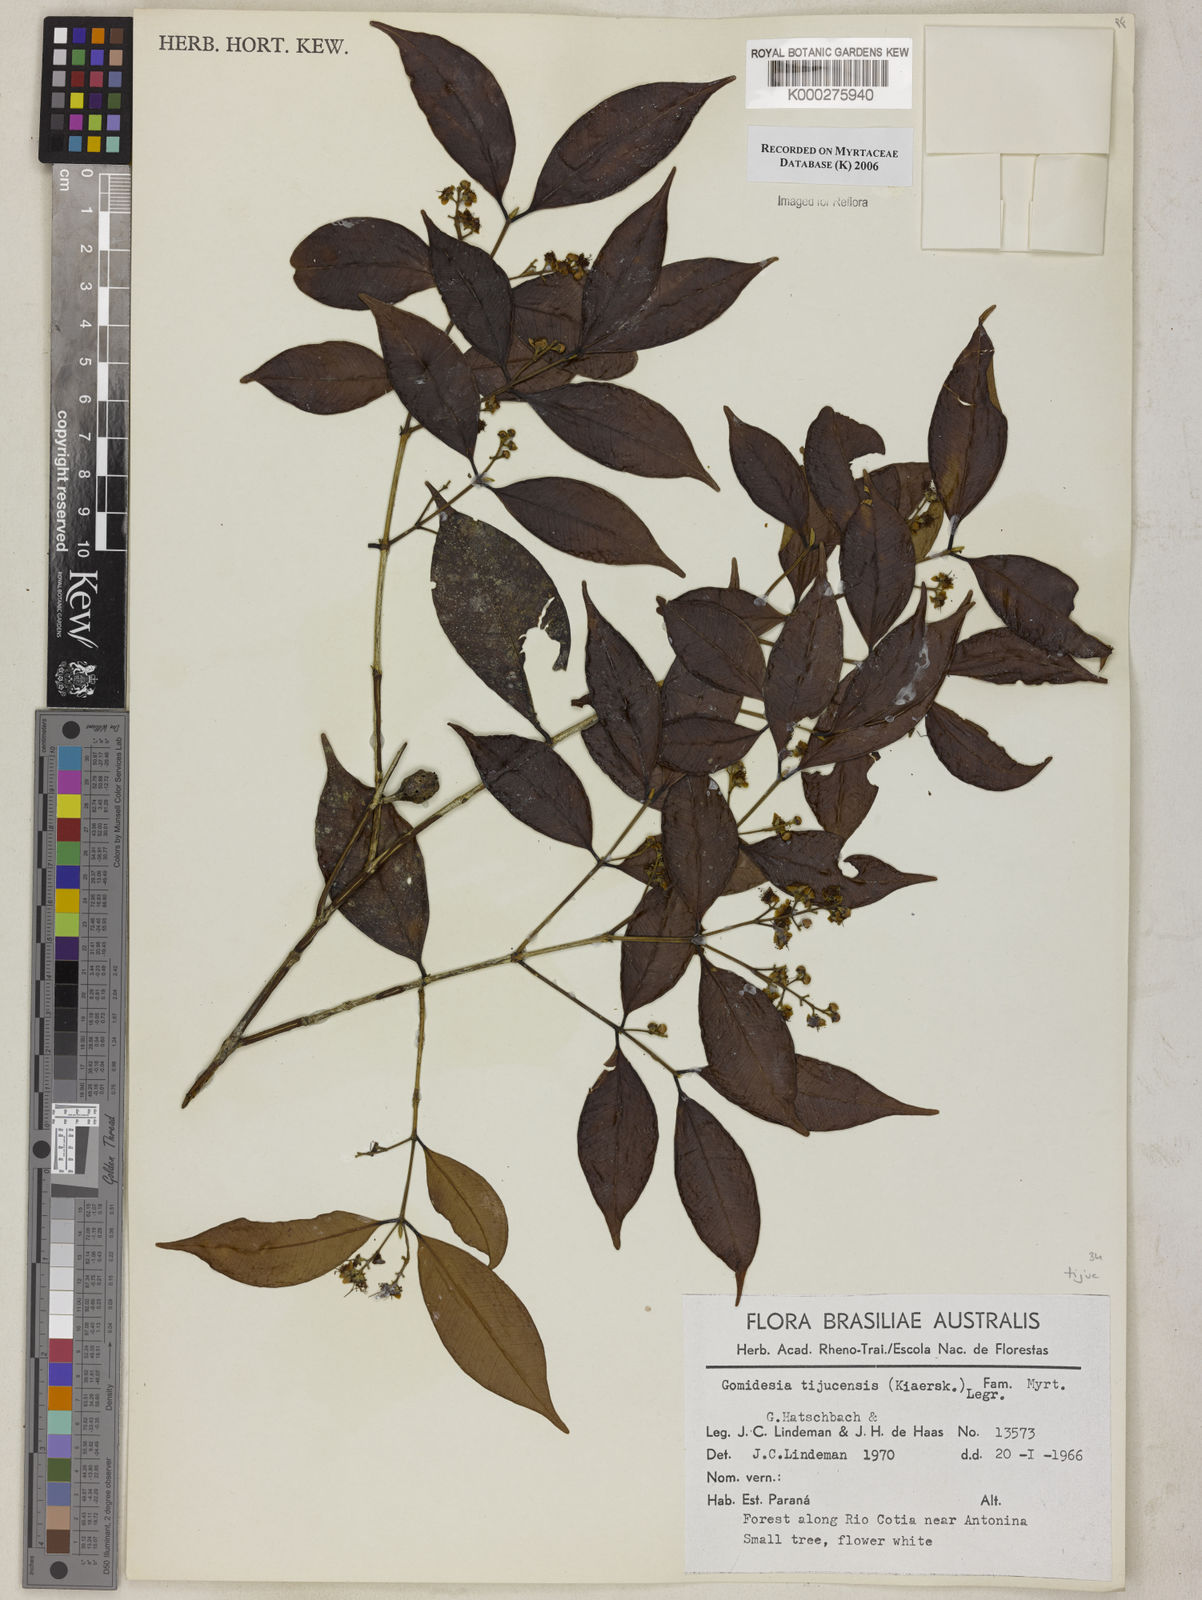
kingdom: Plantae
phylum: Tracheophyta
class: Magnoliopsida
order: Myrtales
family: Myrtaceae
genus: Myrcia
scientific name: Myrcia tijucensis
